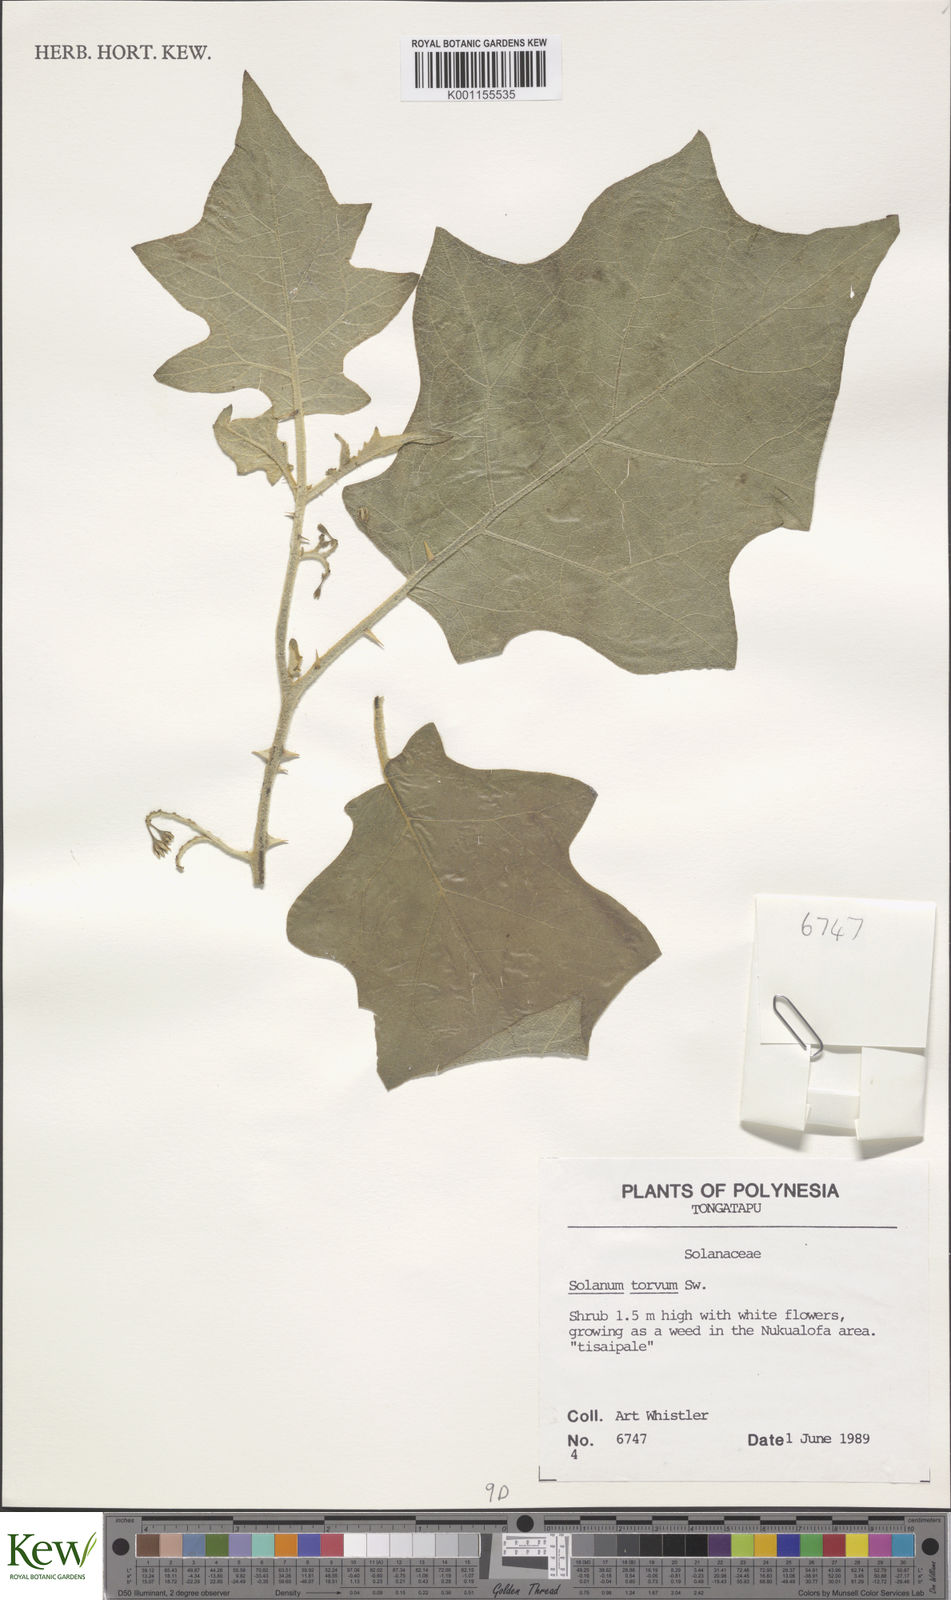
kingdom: Plantae
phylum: Tracheophyta
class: Magnoliopsida
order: Solanales
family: Solanaceae
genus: Solanum
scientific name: Solanum torvum
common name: Turkey berry
